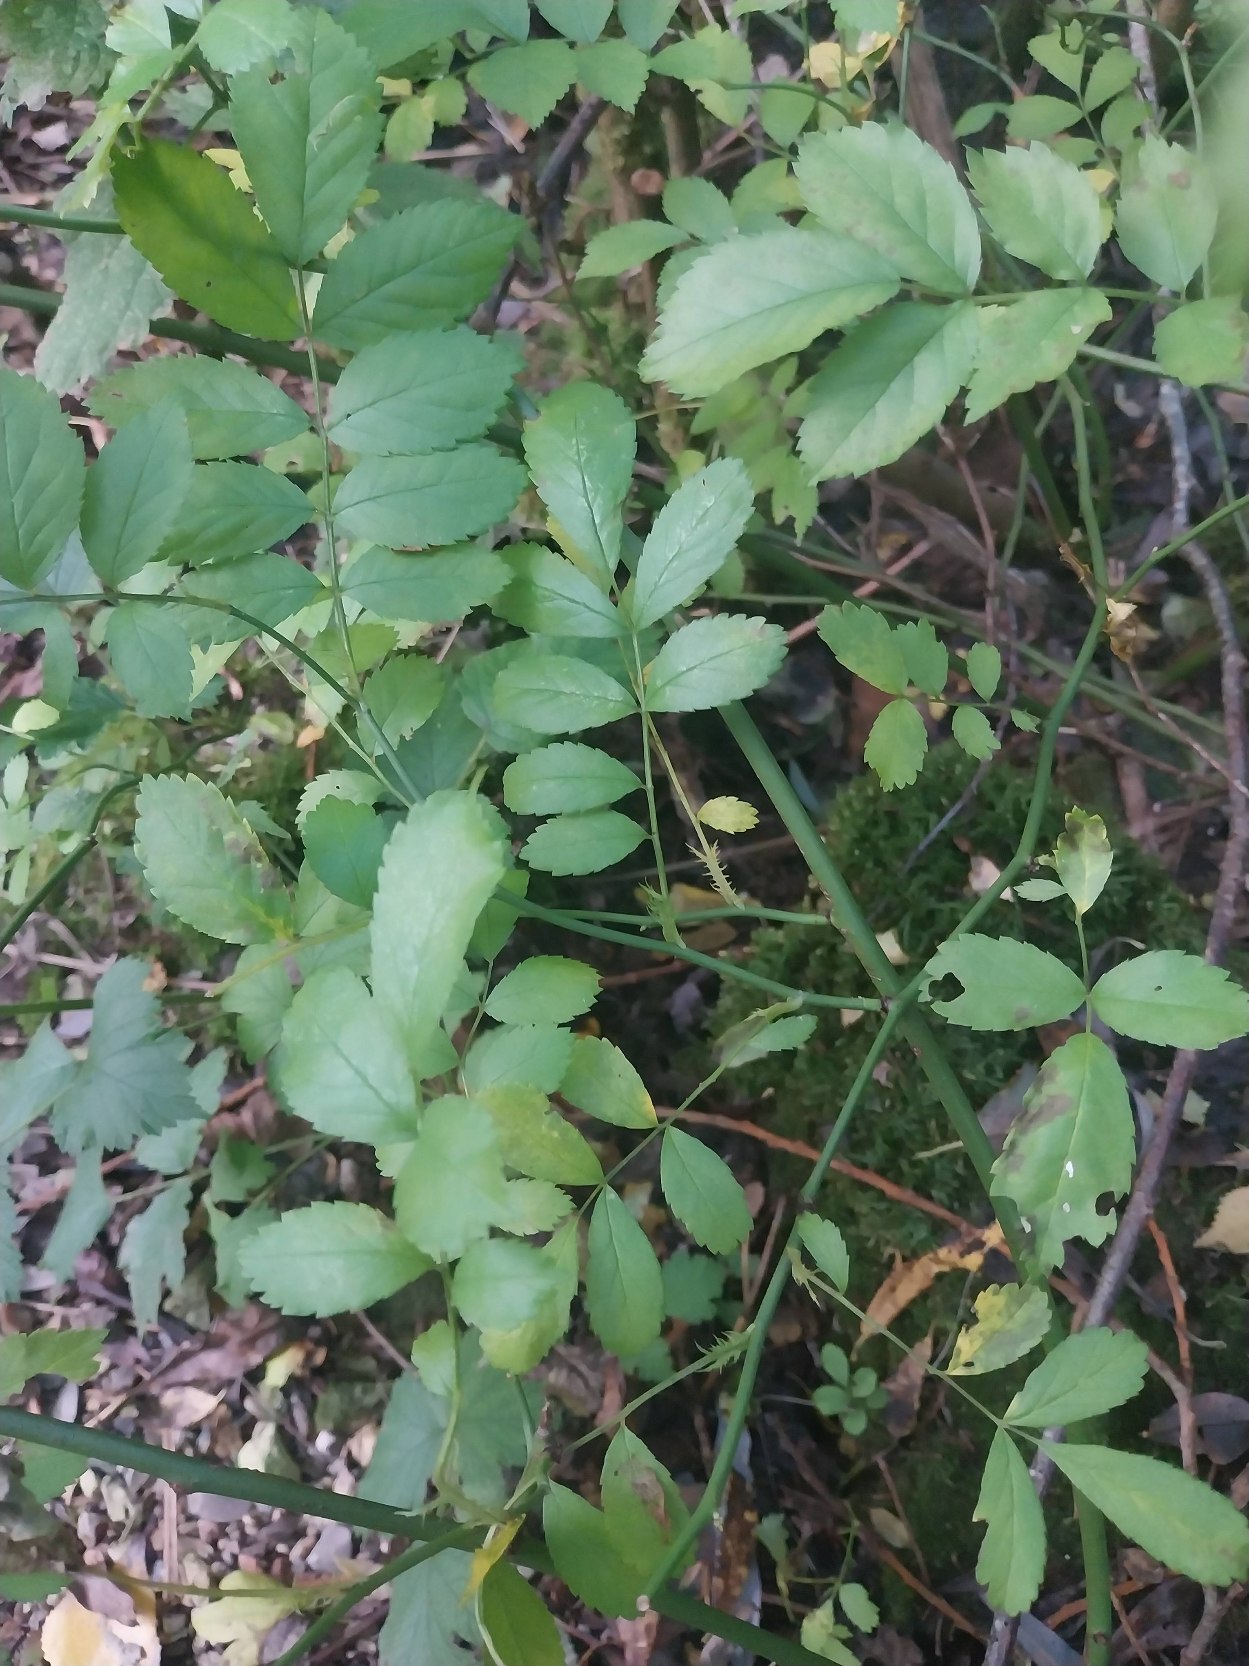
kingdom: Plantae
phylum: Tracheophyta
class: Magnoliopsida
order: Rosales
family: Rosaceae
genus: Rosa
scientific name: Rosa multiflora
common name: Mangeblomstret rose
